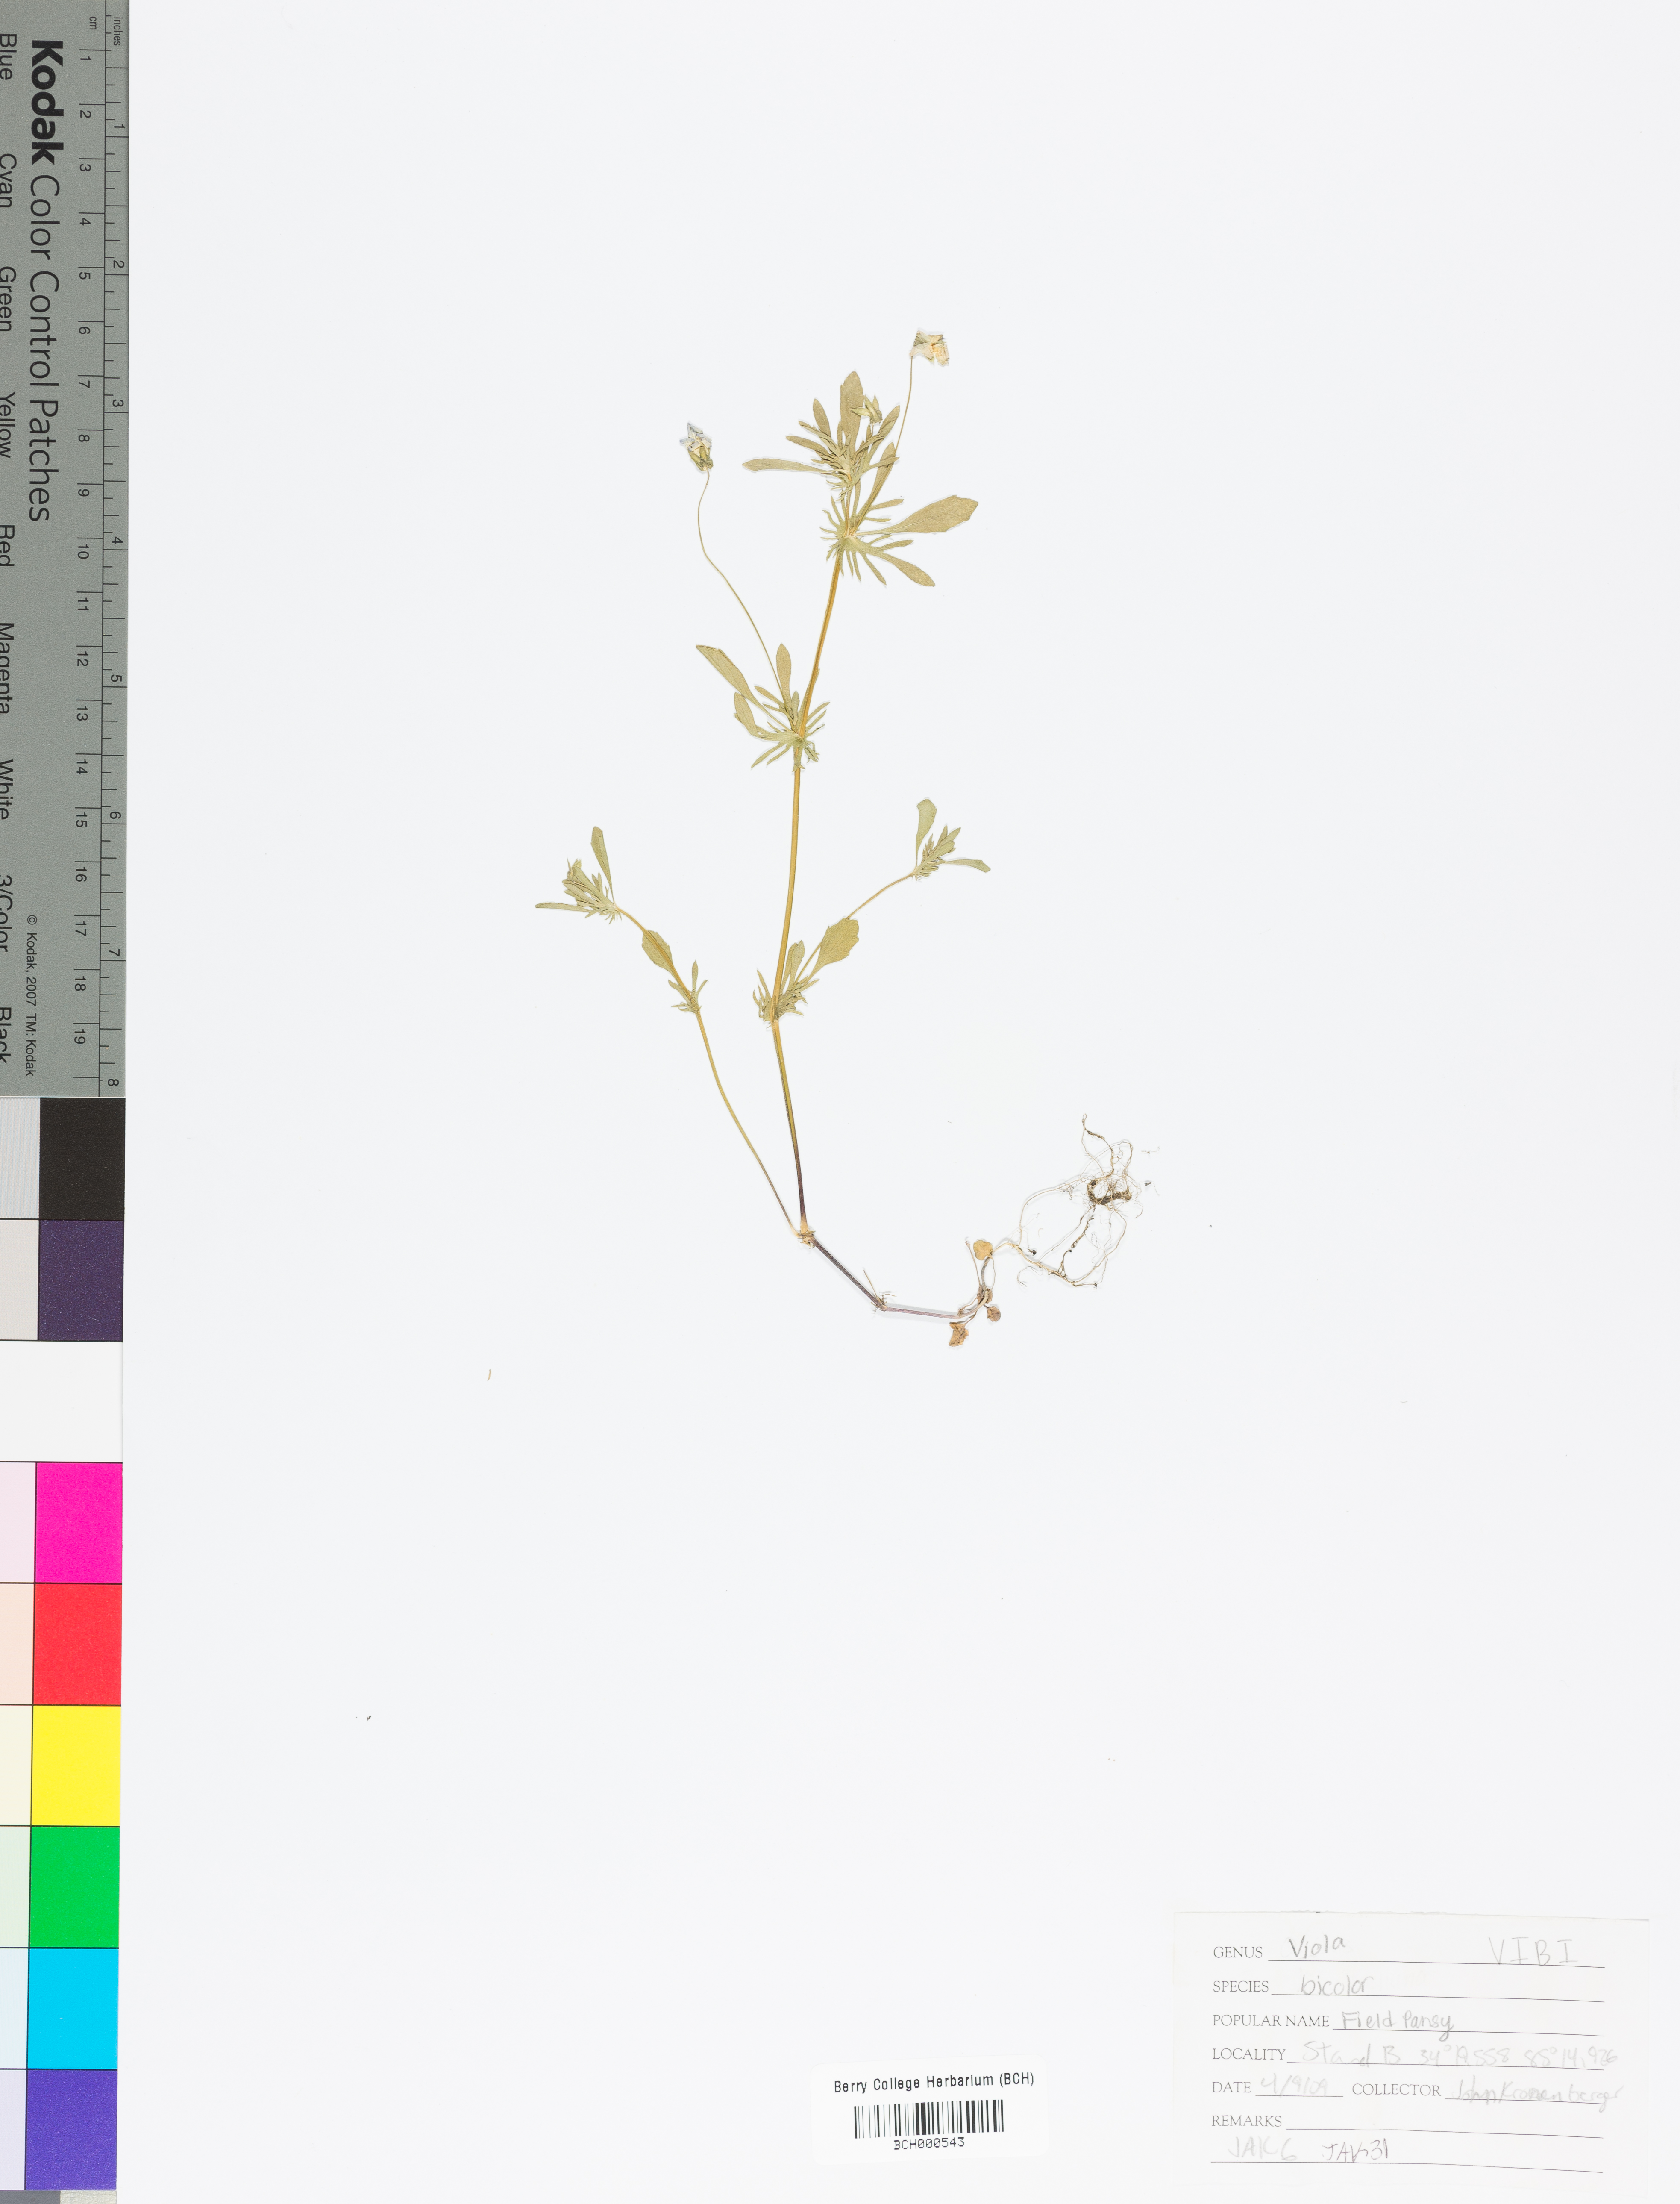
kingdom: Plantae
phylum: Tracheophyta
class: Magnoliopsida
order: Malpighiales
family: Violaceae
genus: Viola
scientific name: Viola rafinesquei
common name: American field pansy
